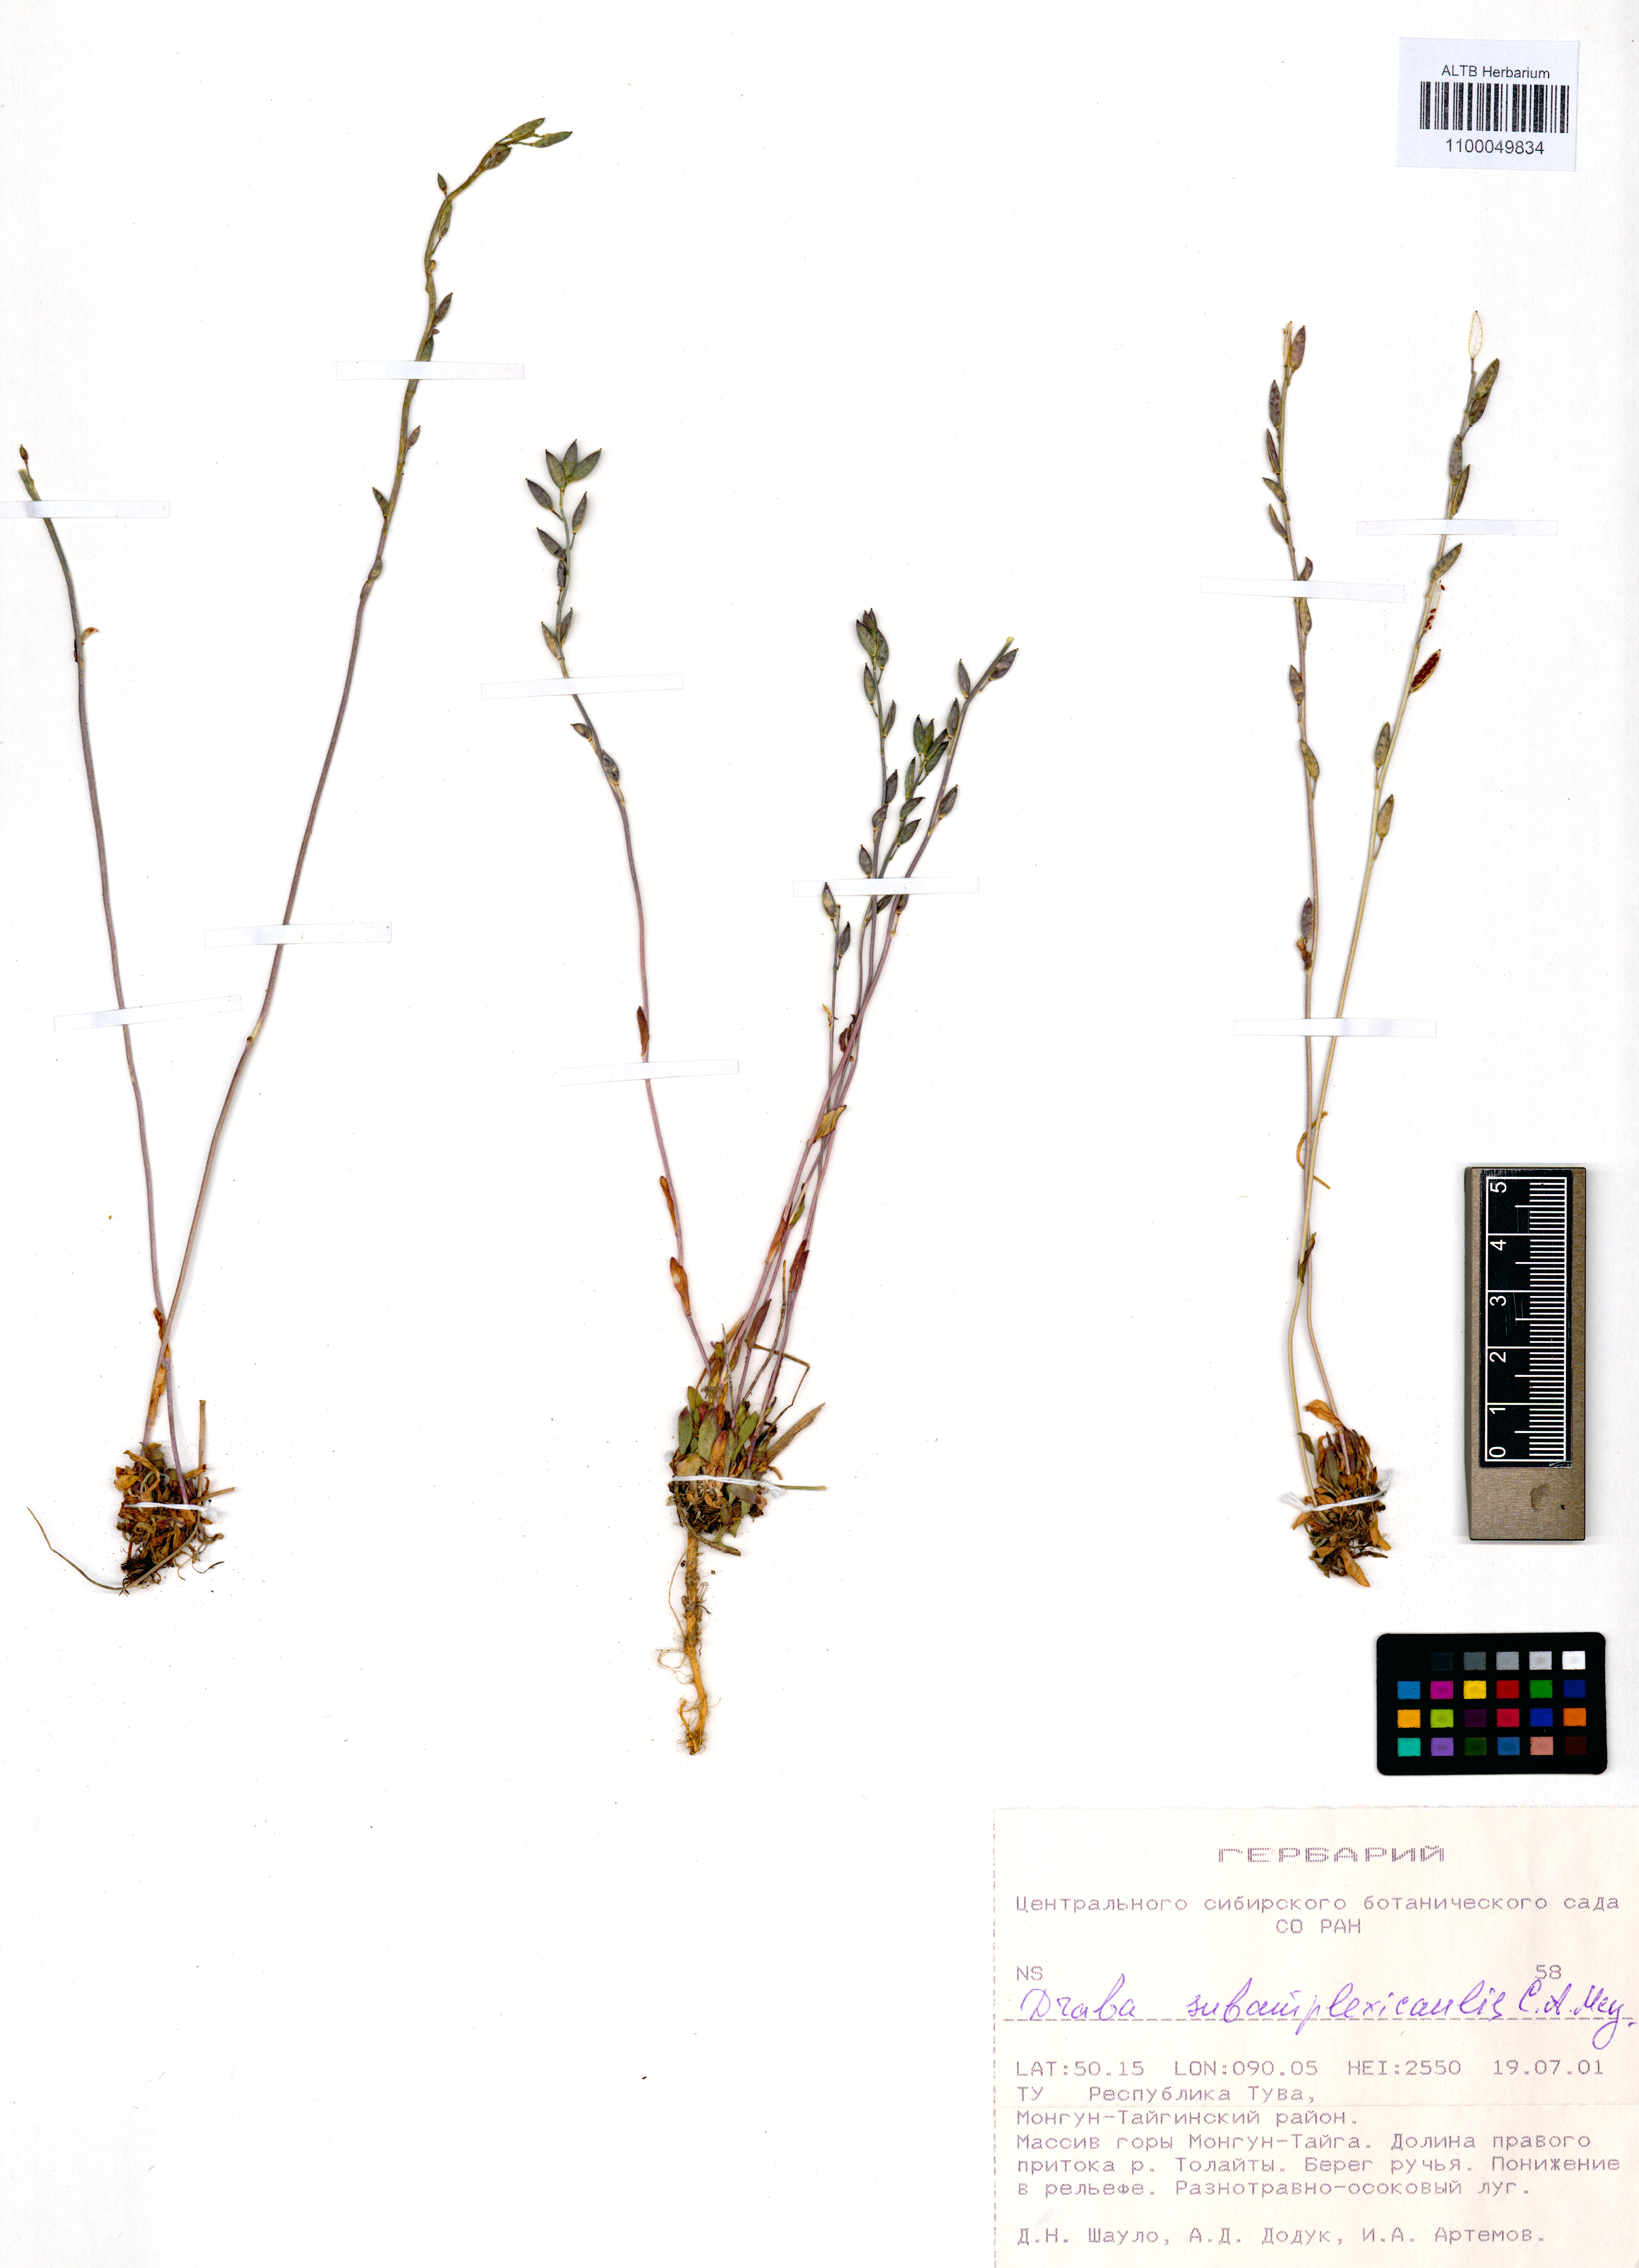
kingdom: Plantae
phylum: Tracheophyta
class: Magnoliopsida
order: Brassicales
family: Brassicaceae
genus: Draba
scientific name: Draba subamplexicaulis
